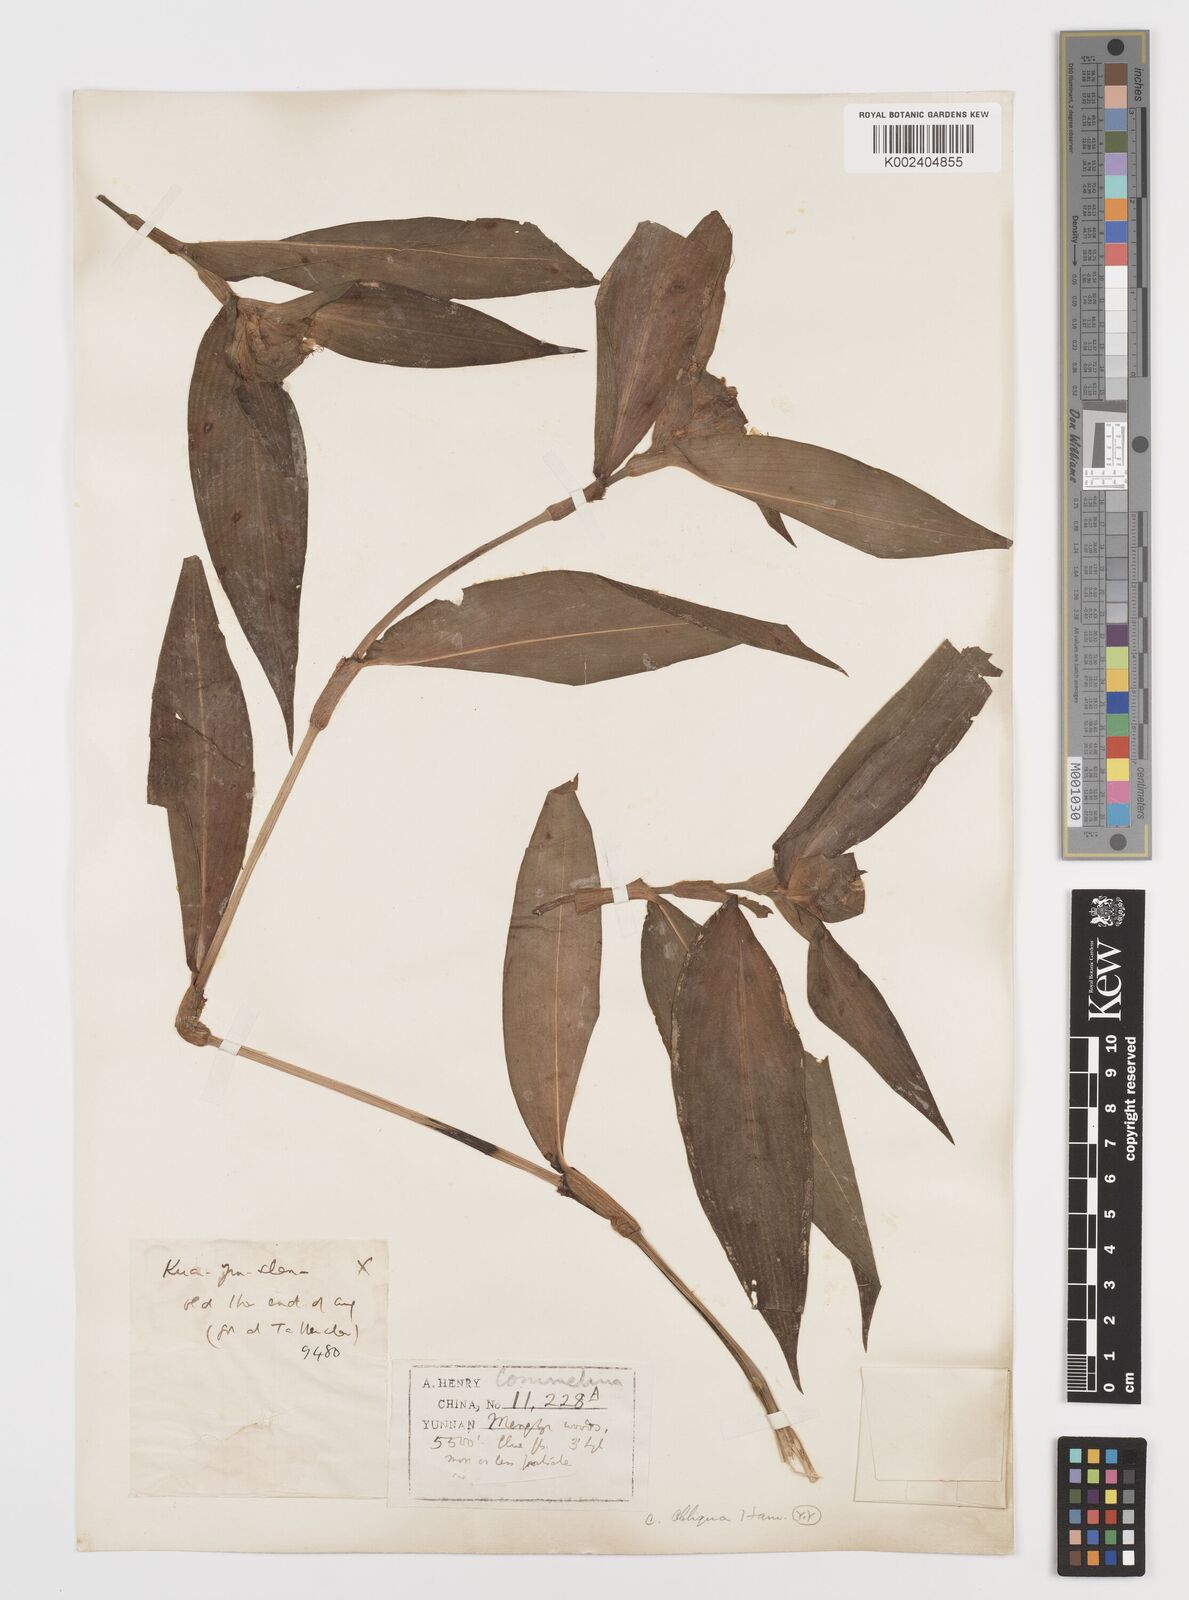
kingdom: Plantae
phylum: Tracheophyta
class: Liliopsida
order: Commelinales
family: Commelinaceae
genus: Commelina
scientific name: Commelina obliqua
